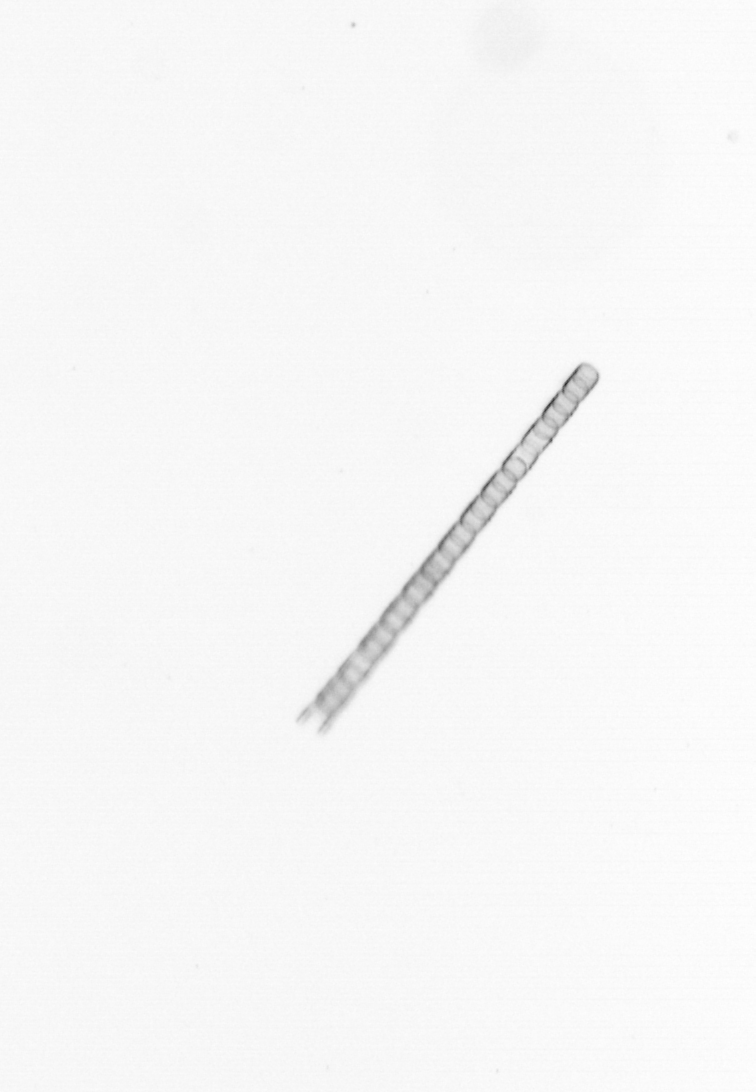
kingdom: Chromista
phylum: Ochrophyta
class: Bacillariophyceae
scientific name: Bacillariophyceae
